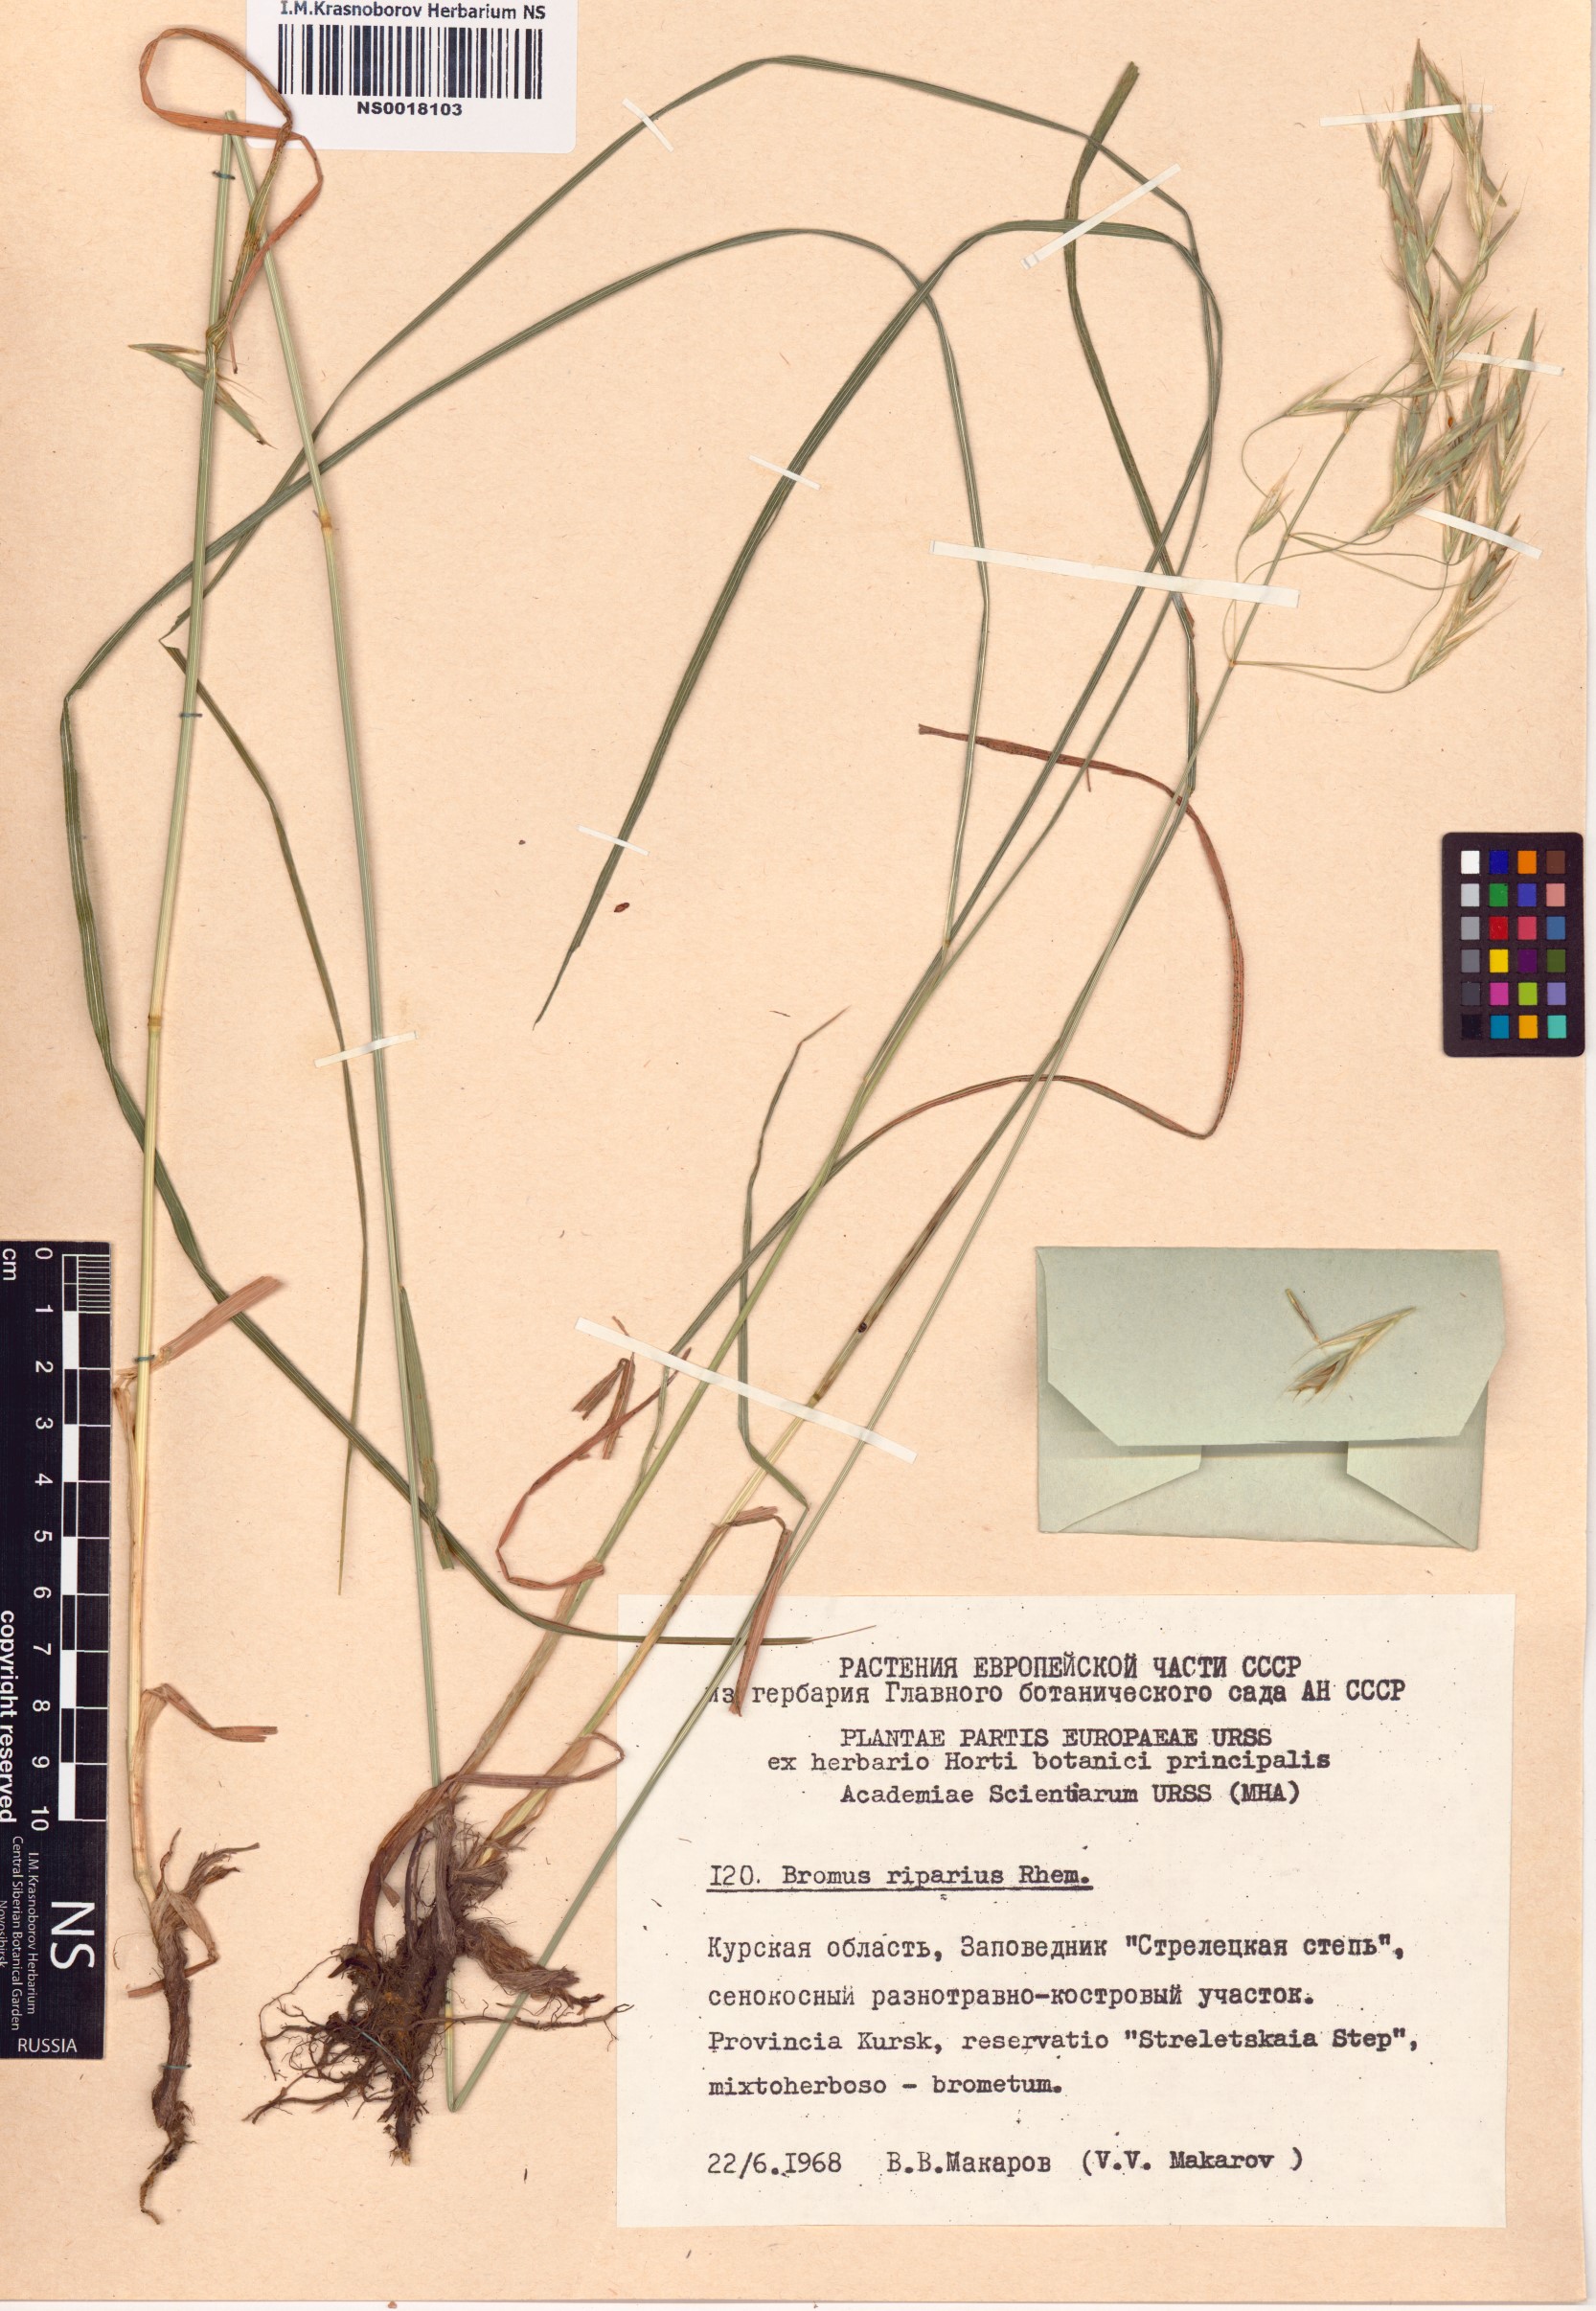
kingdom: Plantae
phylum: Tracheophyta
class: Liliopsida
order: Poales
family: Poaceae
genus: Bromus
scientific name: Bromus riparius
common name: Meadow brome
